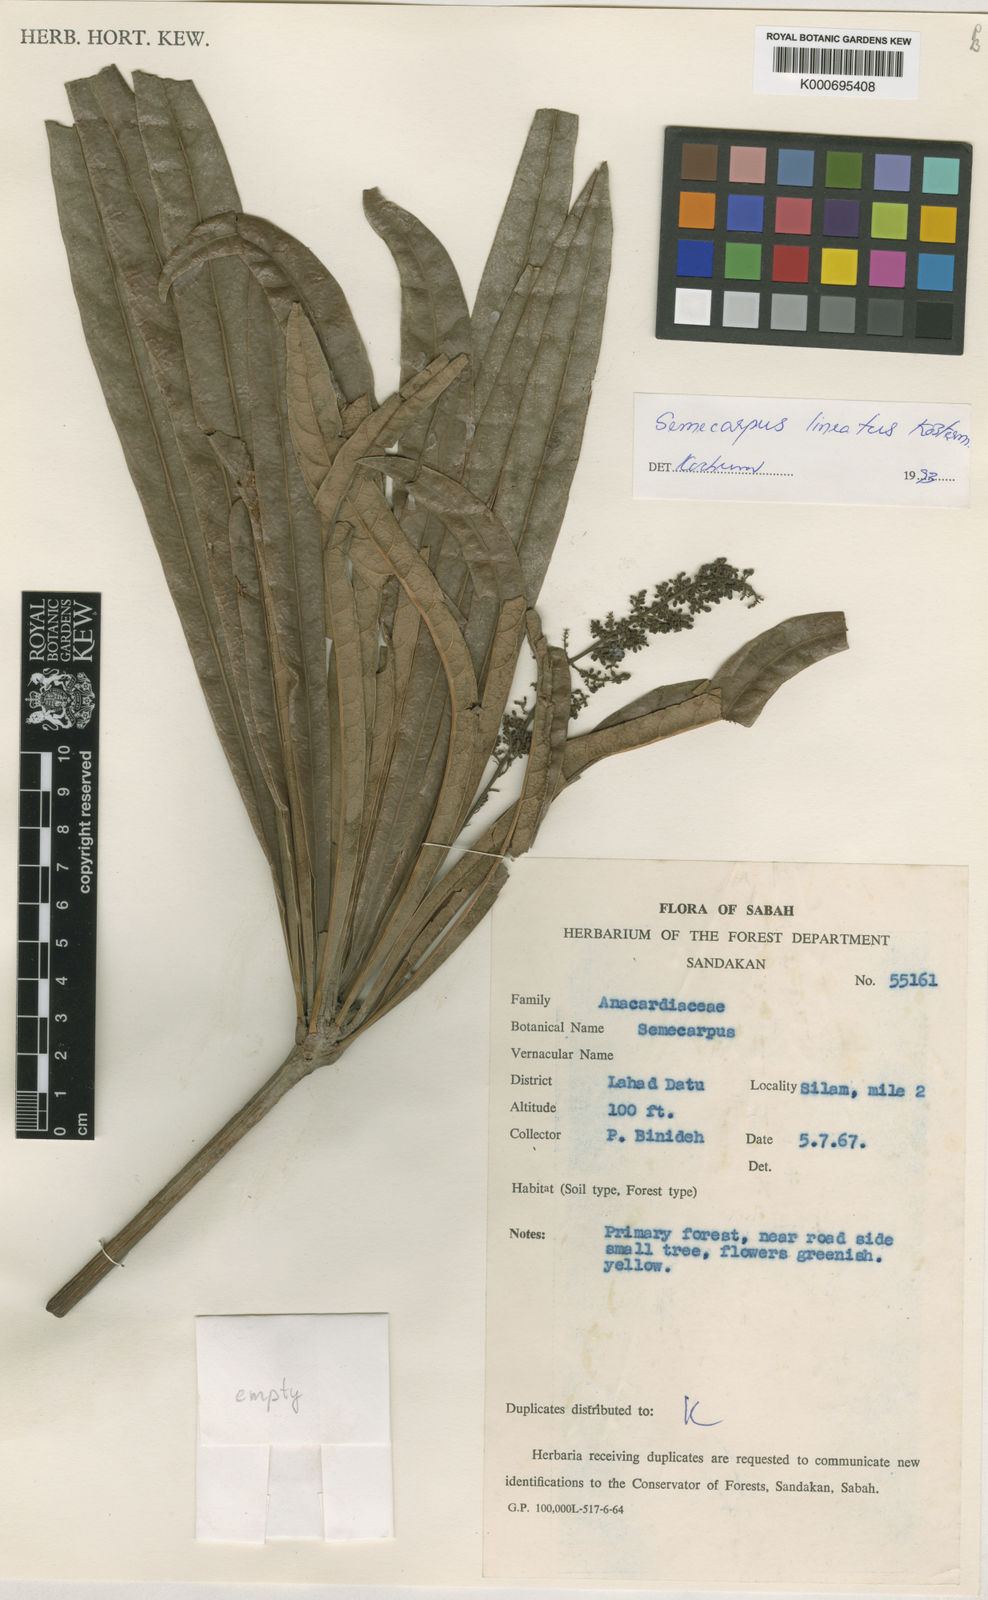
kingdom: Plantae
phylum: Tracheophyta
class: Magnoliopsida
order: Sapindales
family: Anacardiaceae
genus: Semecarpus
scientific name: Semecarpus lineatus
